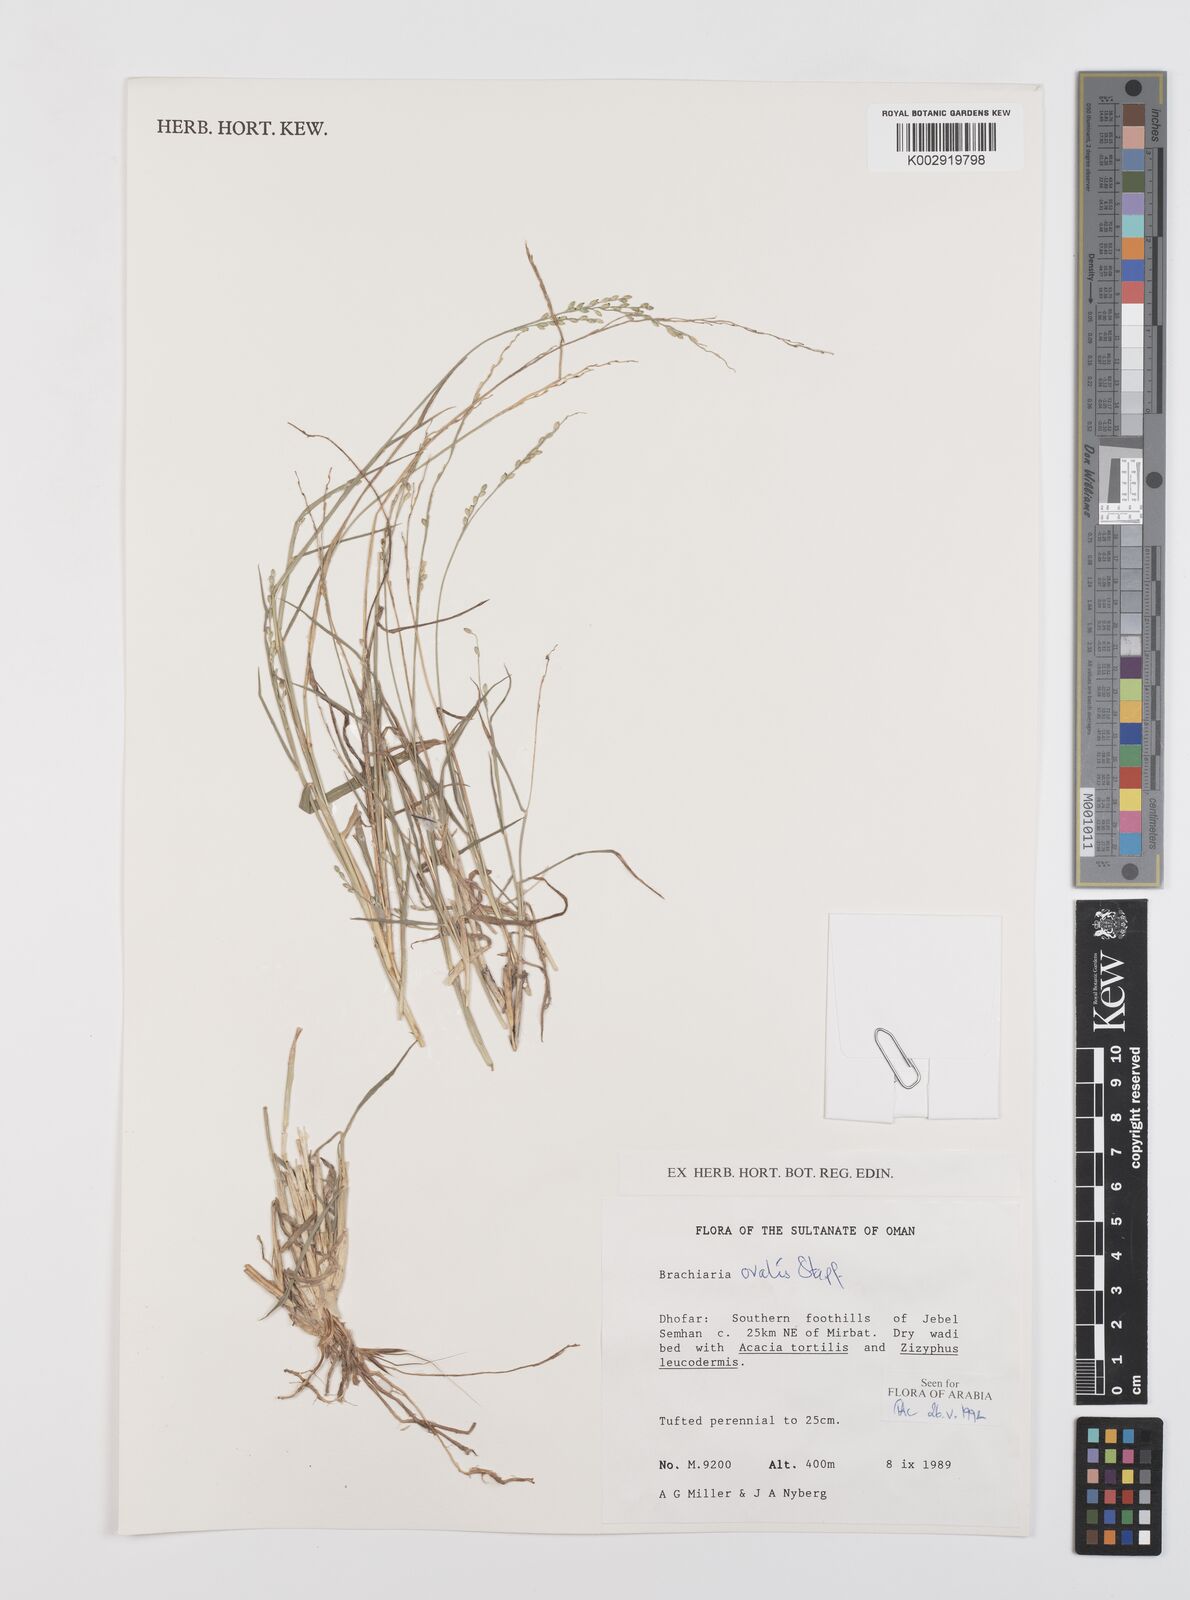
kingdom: Plantae
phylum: Tracheophyta
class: Liliopsida
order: Poales
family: Poaceae
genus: Urochloa
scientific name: Urochloa ovalis
